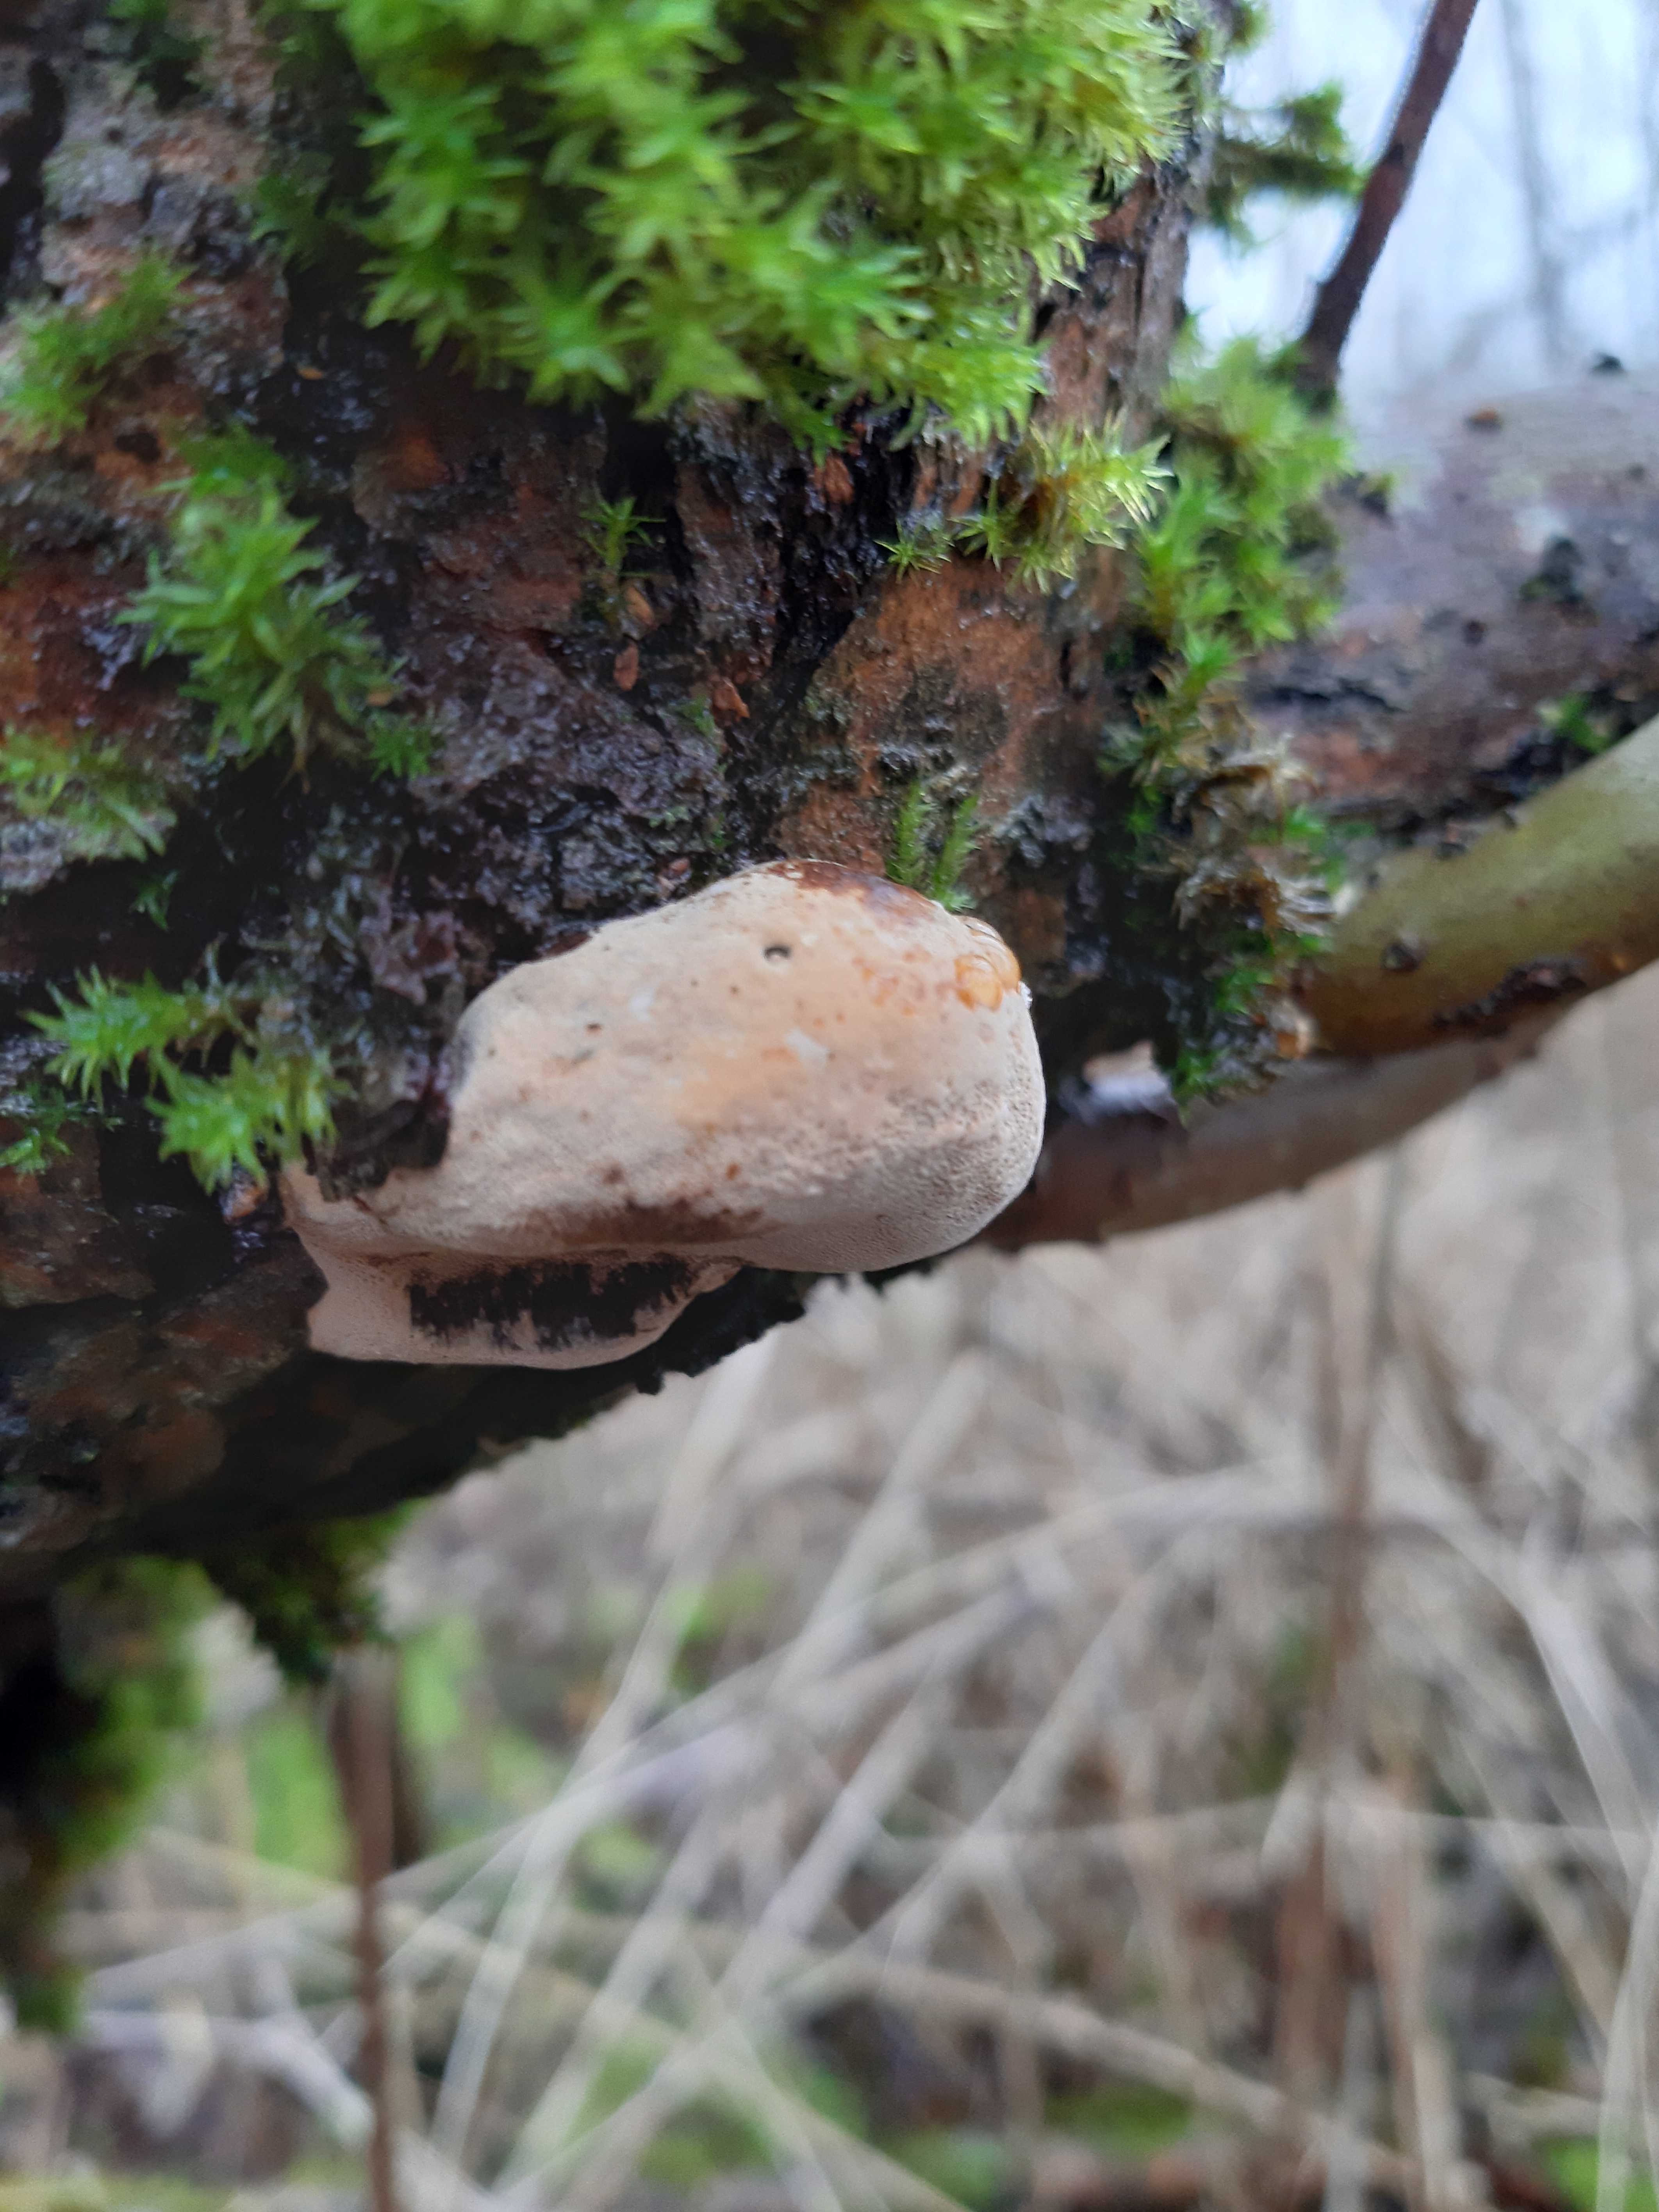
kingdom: Fungi
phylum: Basidiomycota
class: Agaricomycetes
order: Polyporales
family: Polyporaceae
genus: Daedaleopsis
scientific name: Daedaleopsis confragosa
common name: rødmende læderporesvamp
